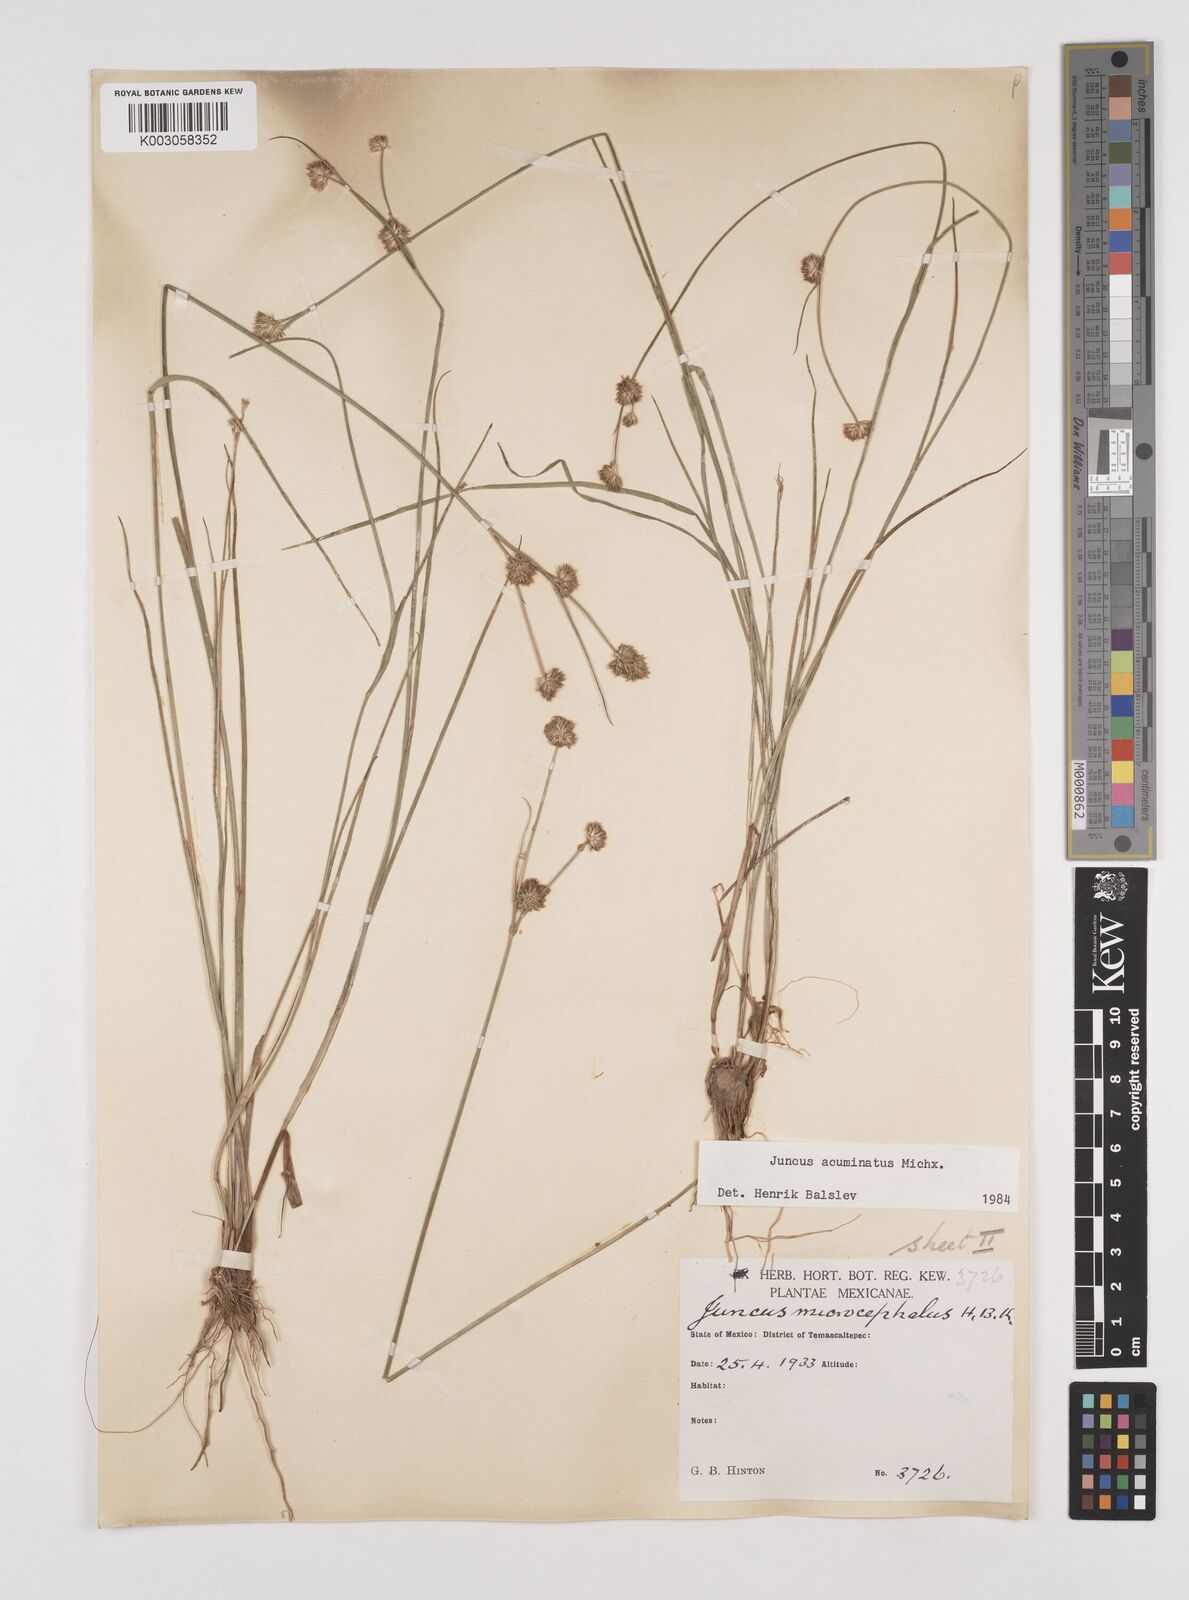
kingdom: Plantae
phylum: Tracheophyta
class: Liliopsida
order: Poales
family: Juncaceae
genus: Juncus
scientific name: Juncus acuminatus
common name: Knotty-leaved rush
